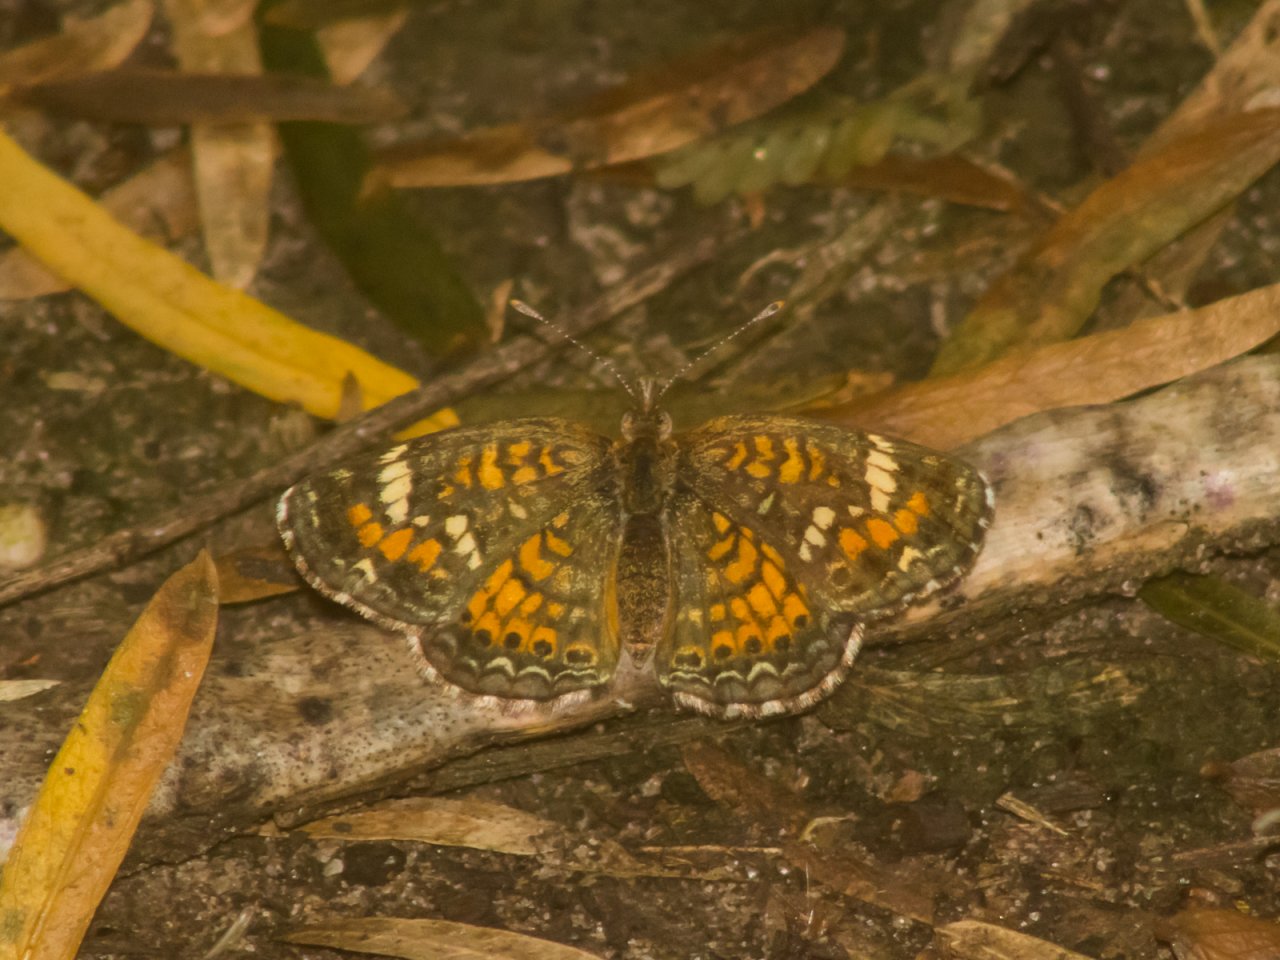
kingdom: Animalia
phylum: Arthropoda
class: Insecta
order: Lepidoptera
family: Nymphalidae
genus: Phyciodes
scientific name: Phyciodes phaon
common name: Phaon Crescent
